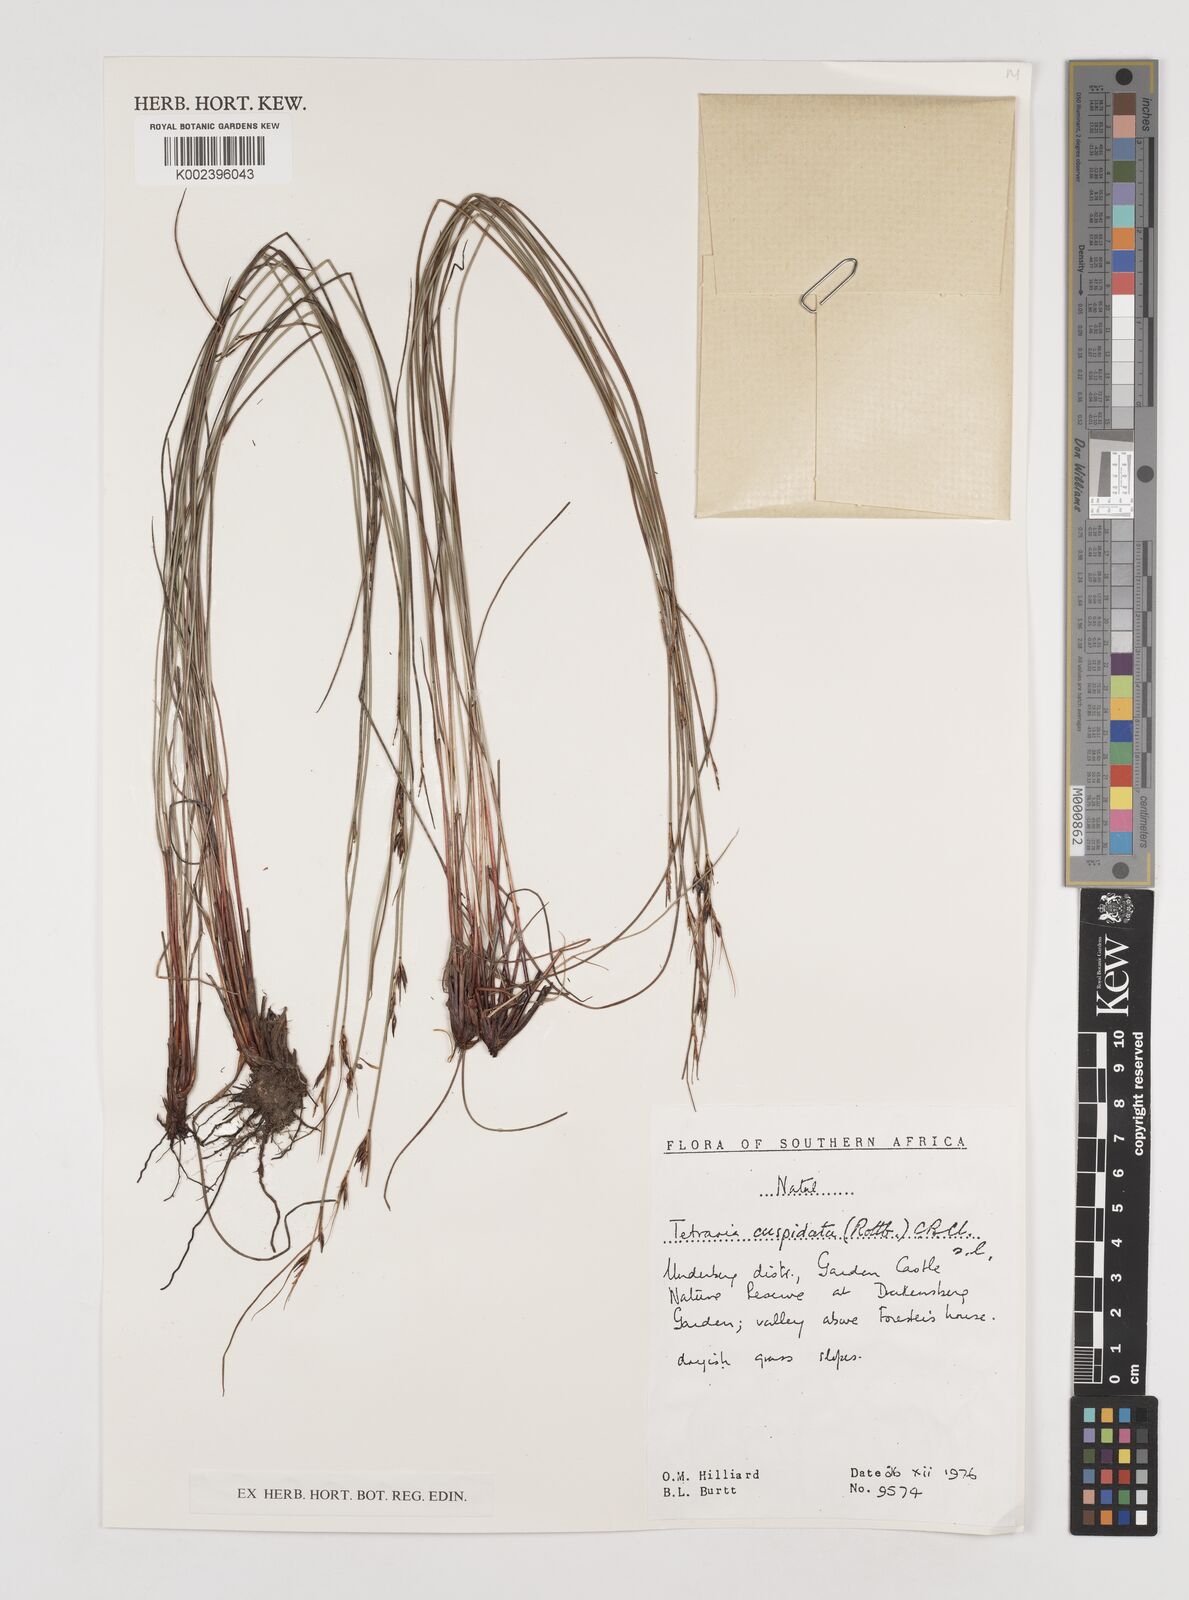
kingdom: Plantae
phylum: Tracheophyta
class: Liliopsida
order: Poales
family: Cyperaceae
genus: Schoenus
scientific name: Schoenus cuspidatus
